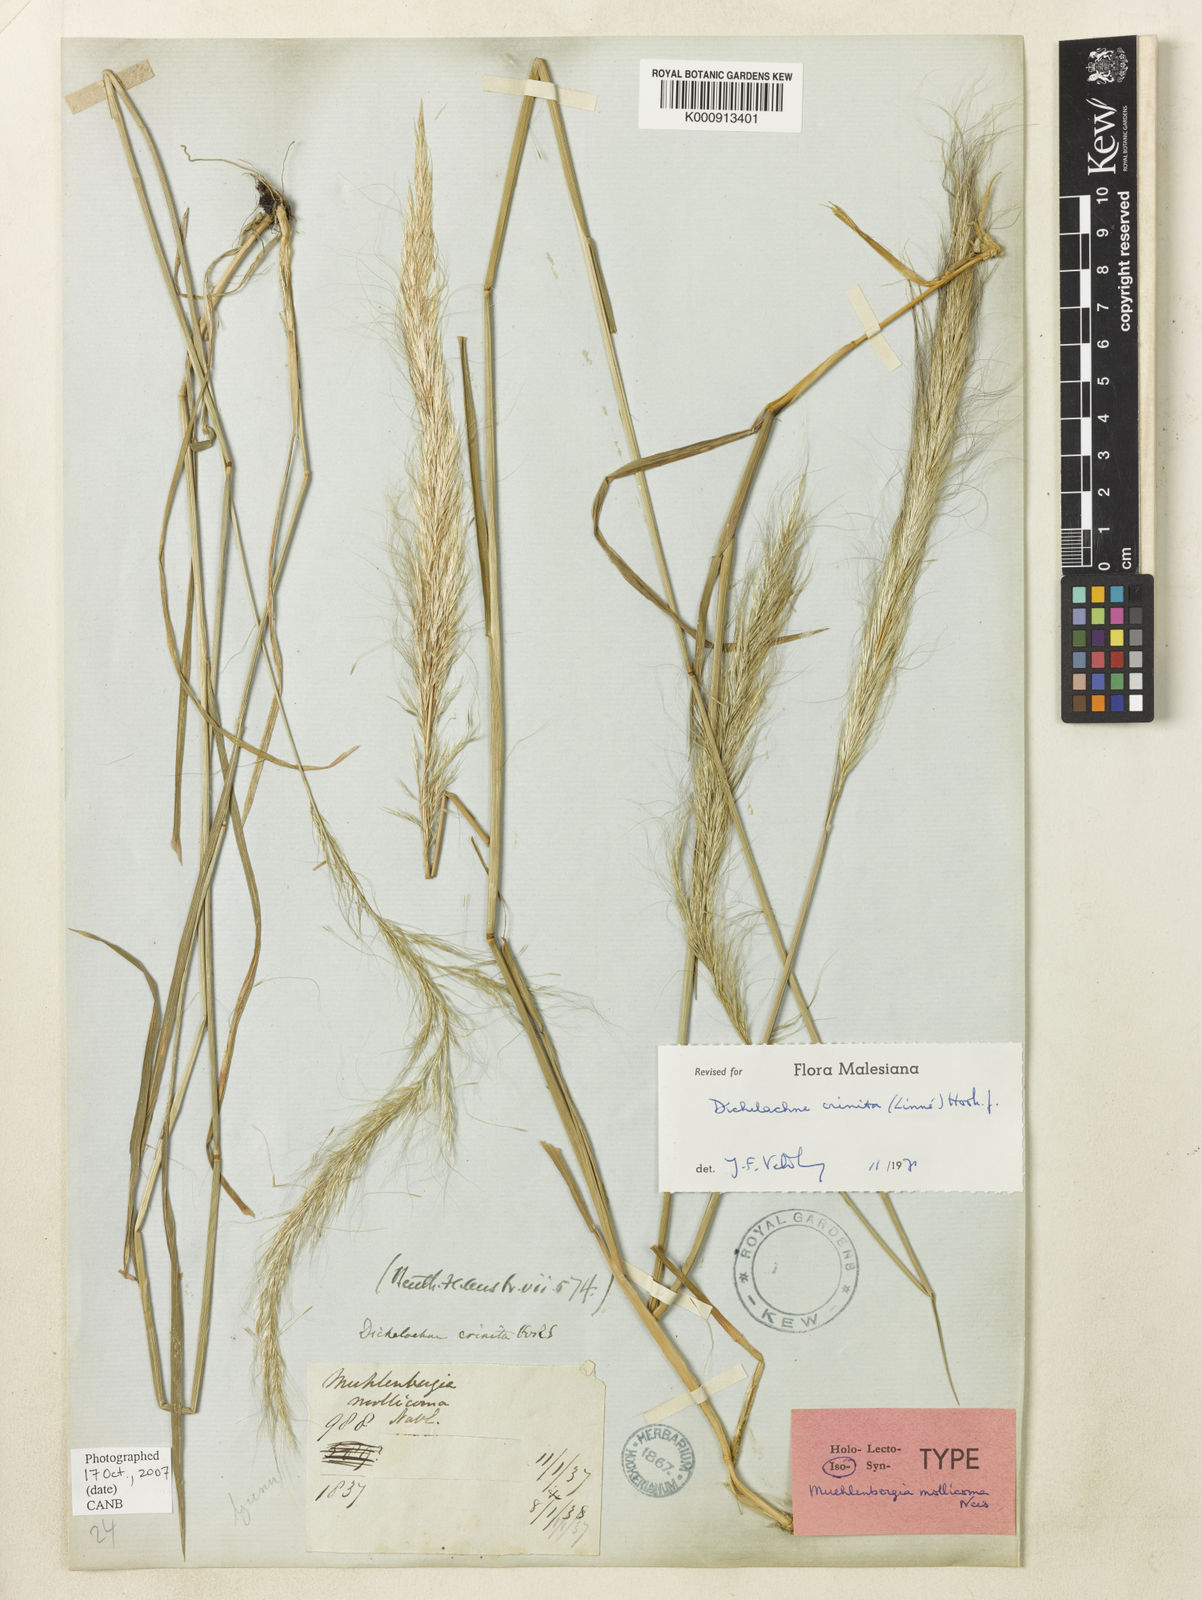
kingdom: Plantae
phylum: Tracheophyta
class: Liliopsida
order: Poales
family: Poaceae
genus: Dichelachne
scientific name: Dichelachne crinita
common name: Clovenfoot plumegrass
